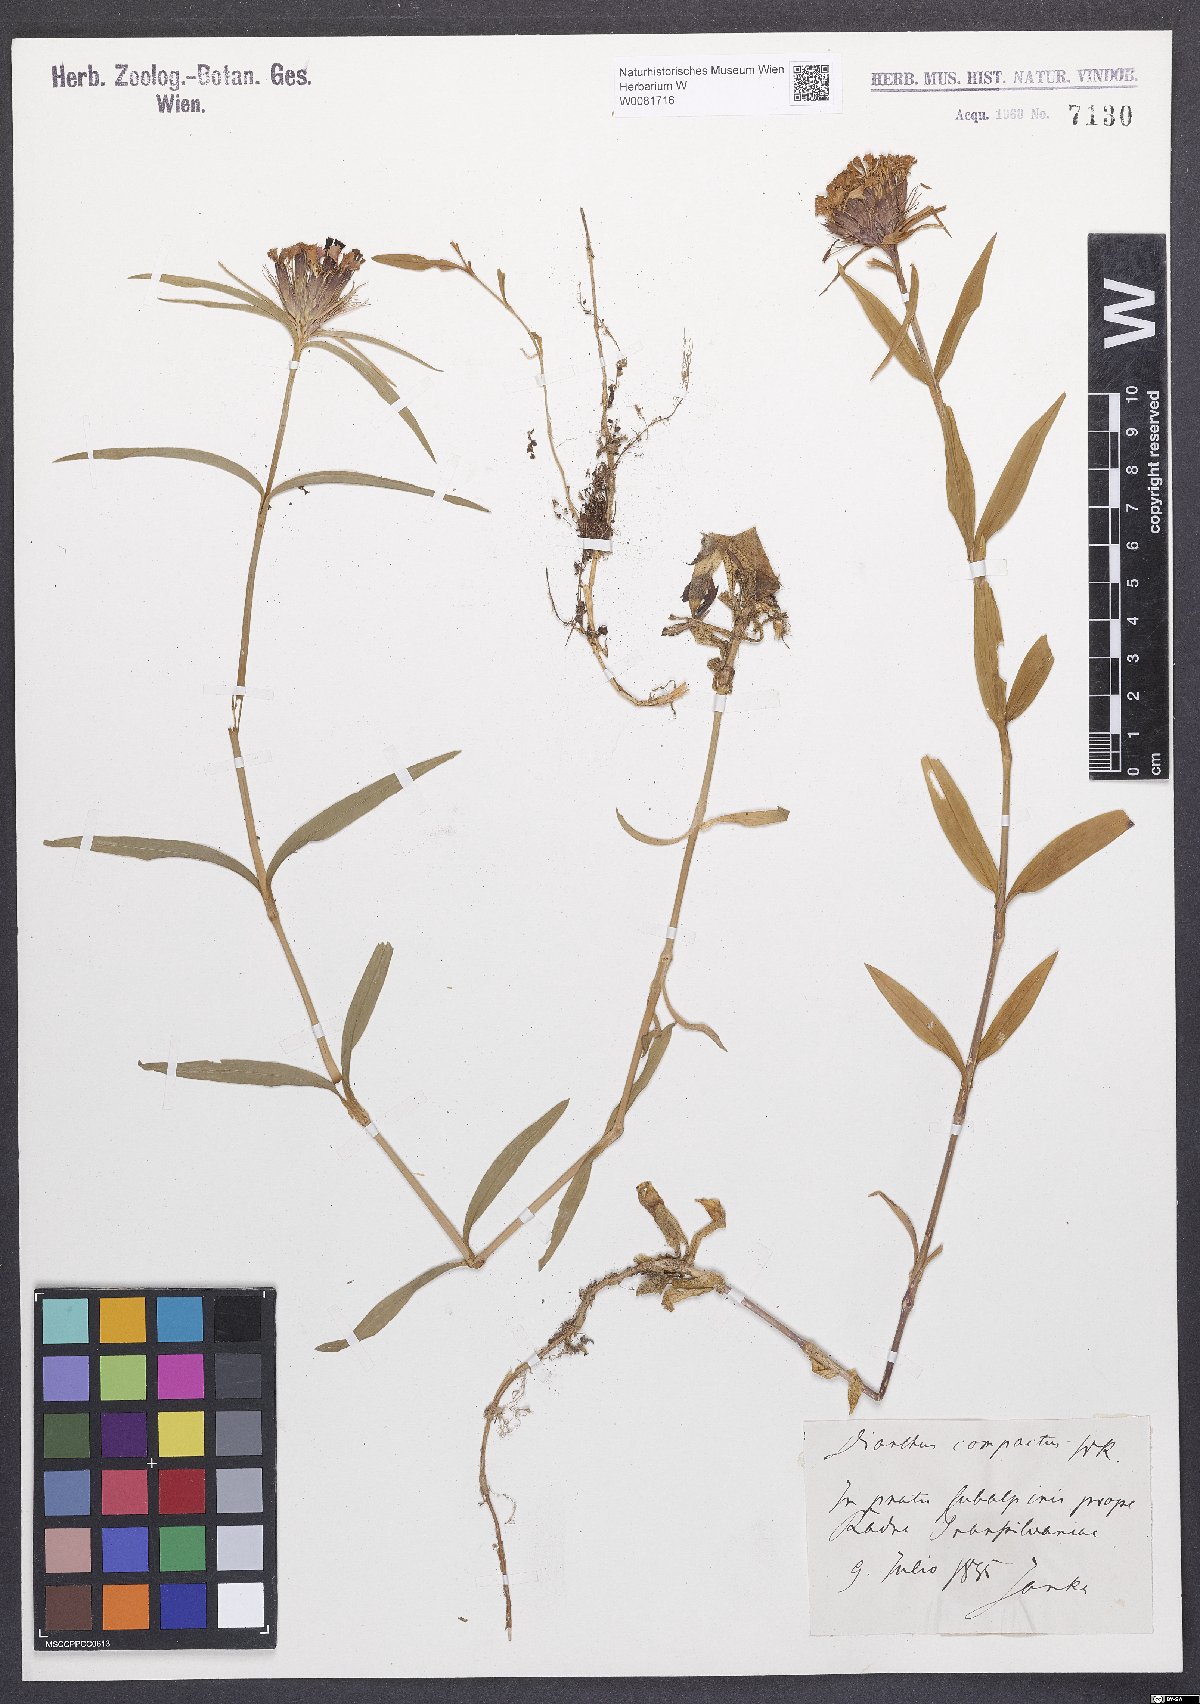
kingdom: Plantae
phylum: Tracheophyta
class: Magnoliopsida
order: Caryophyllales
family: Caryophyllaceae
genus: Dianthus
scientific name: Dianthus barbatus
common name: Sweet-william
